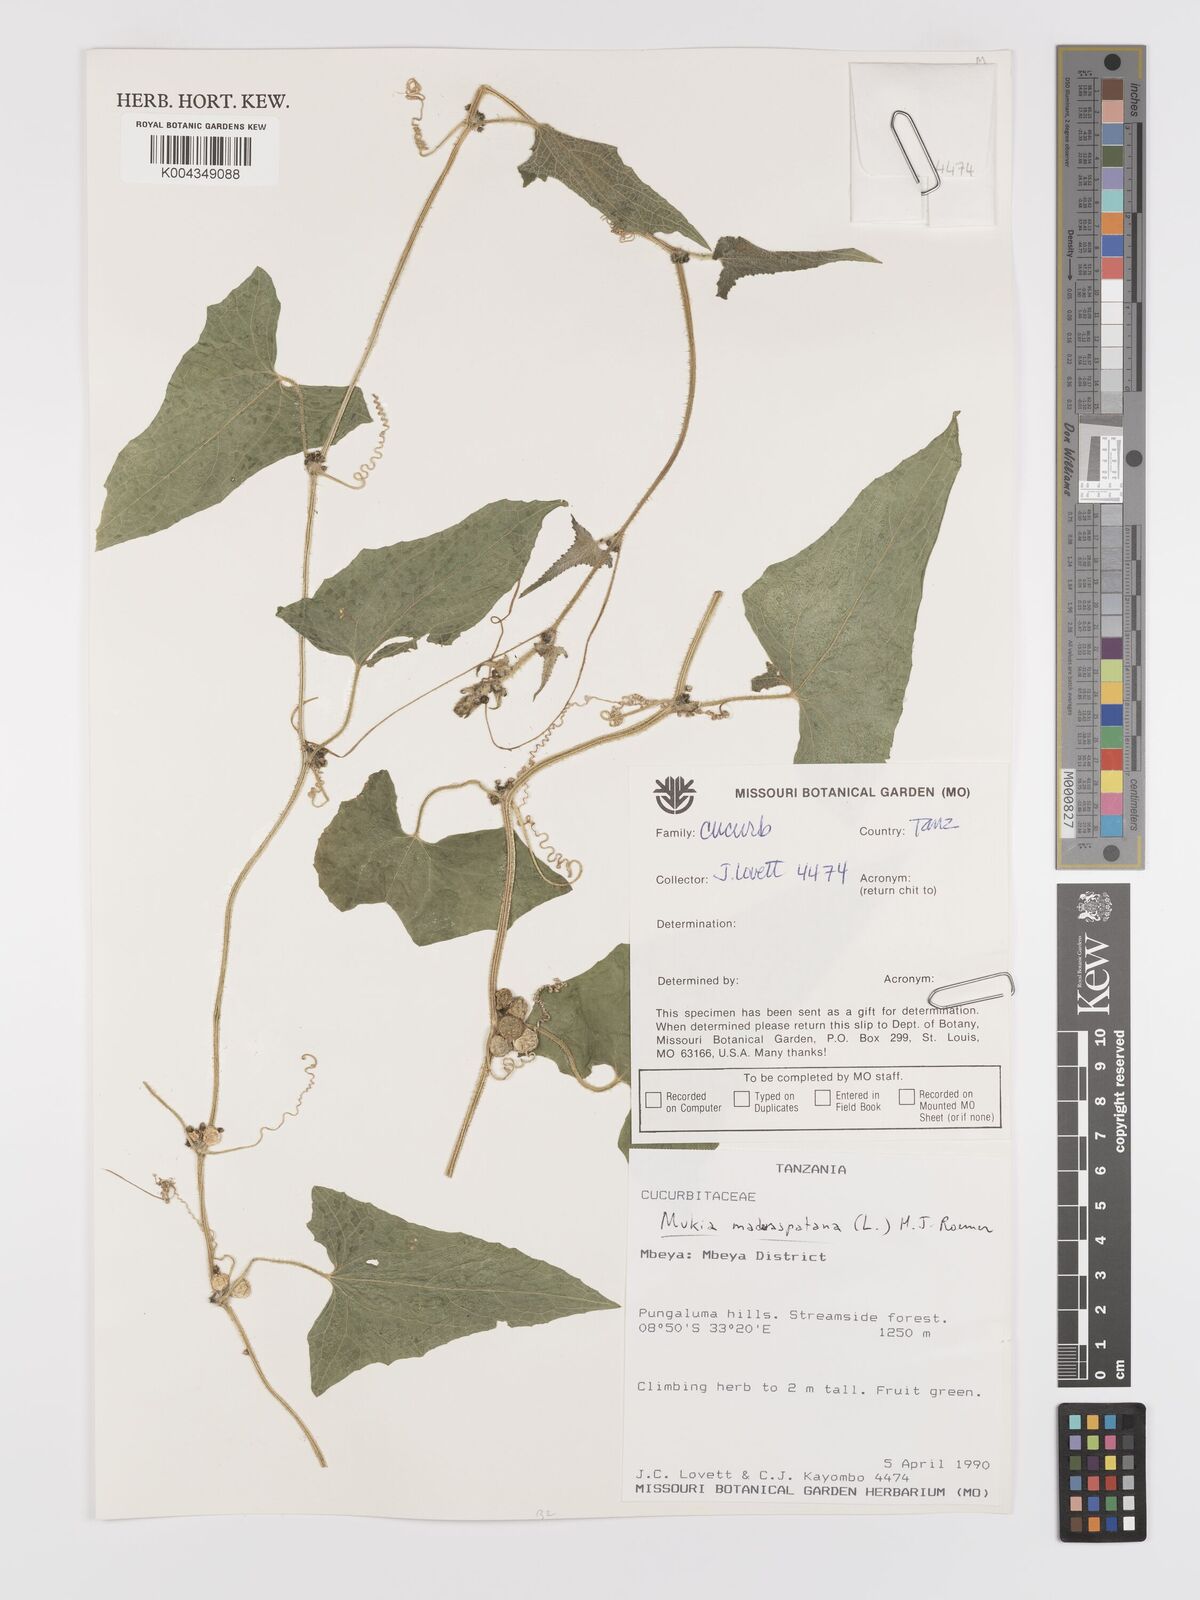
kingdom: Plantae
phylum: Tracheophyta
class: Magnoliopsida
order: Cucurbitales
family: Cucurbitaceae
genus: Cucumis
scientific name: Cucumis maderaspatanus
